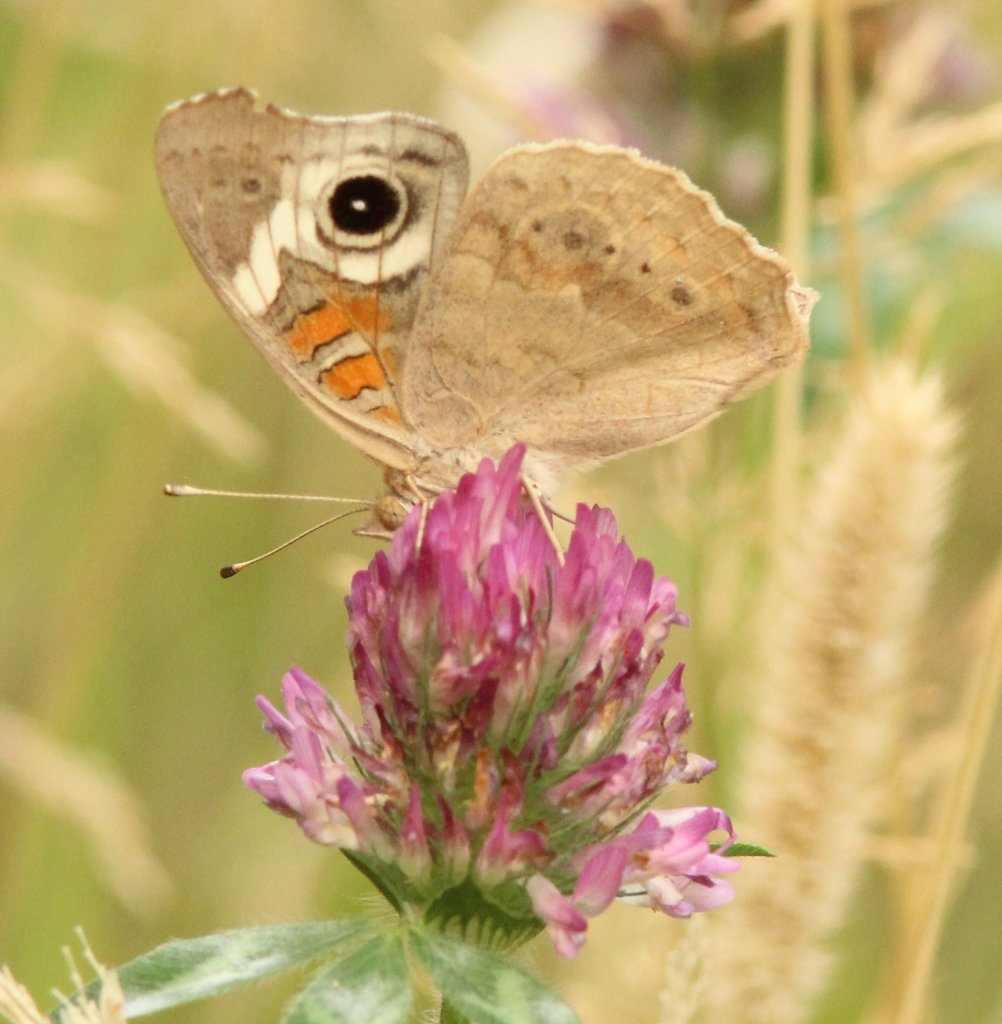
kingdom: Animalia
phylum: Arthropoda
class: Insecta
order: Lepidoptera
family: Nymphalidae
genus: Junonia
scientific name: Junonia coenia
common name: Common Buckeye
